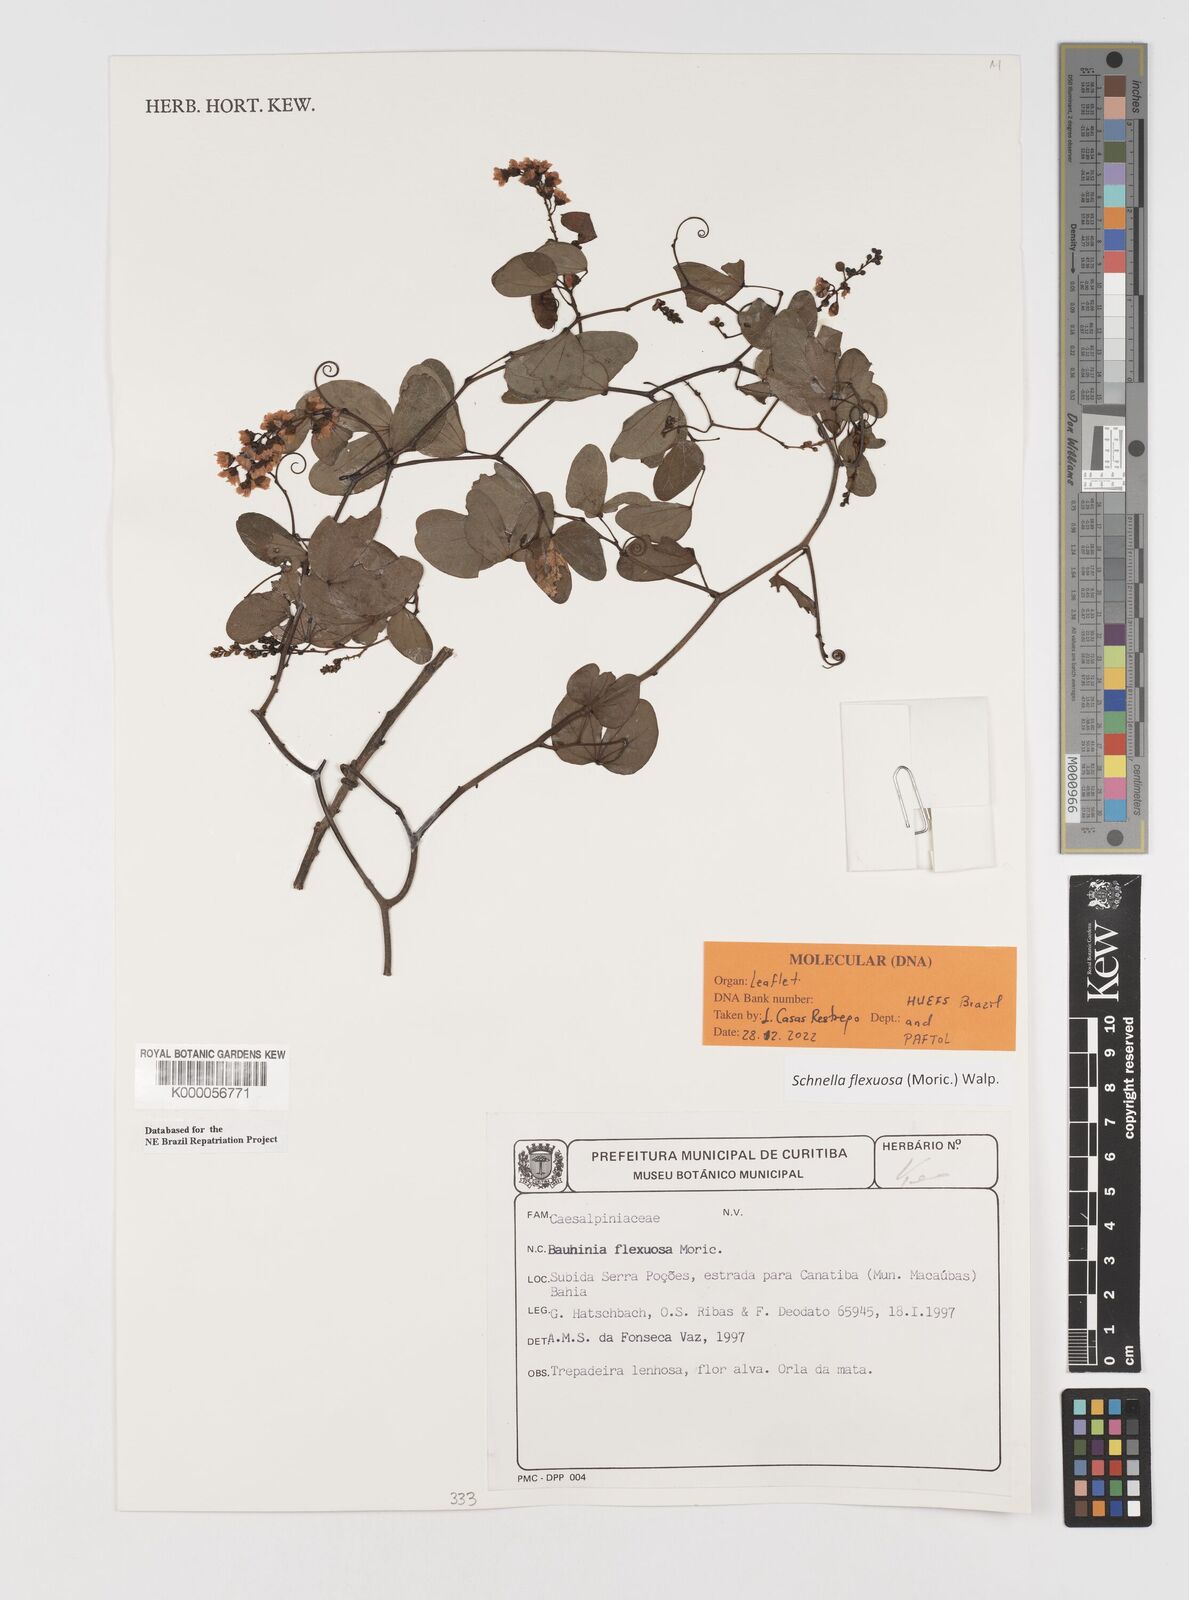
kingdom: Plantae
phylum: Tracheophyta
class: Magnoliopsida
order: Fabales
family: Fabaceae
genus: Schnella
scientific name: Schnella flexuosa
